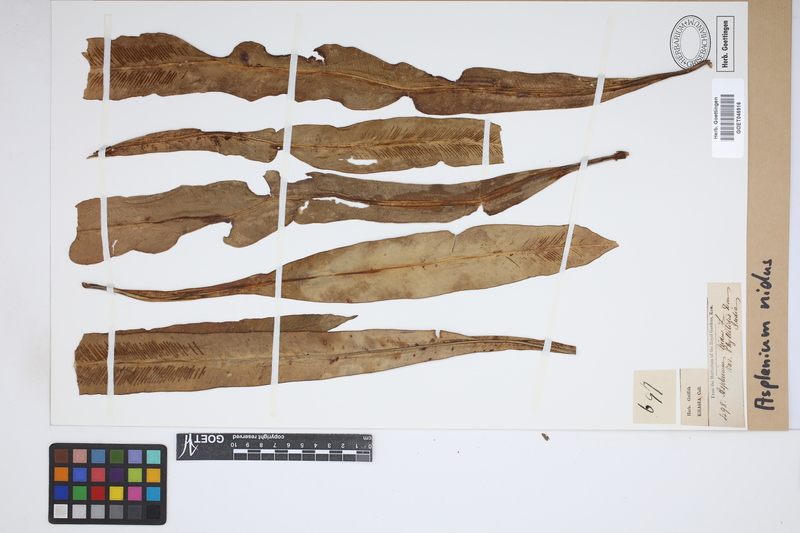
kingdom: Plantae
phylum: Tracheophyta
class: Polypodiopsida
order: Polypodiales
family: Aspleniaceae
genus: Asplenium
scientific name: Asplenium nidus
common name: Bird's-nest fern
